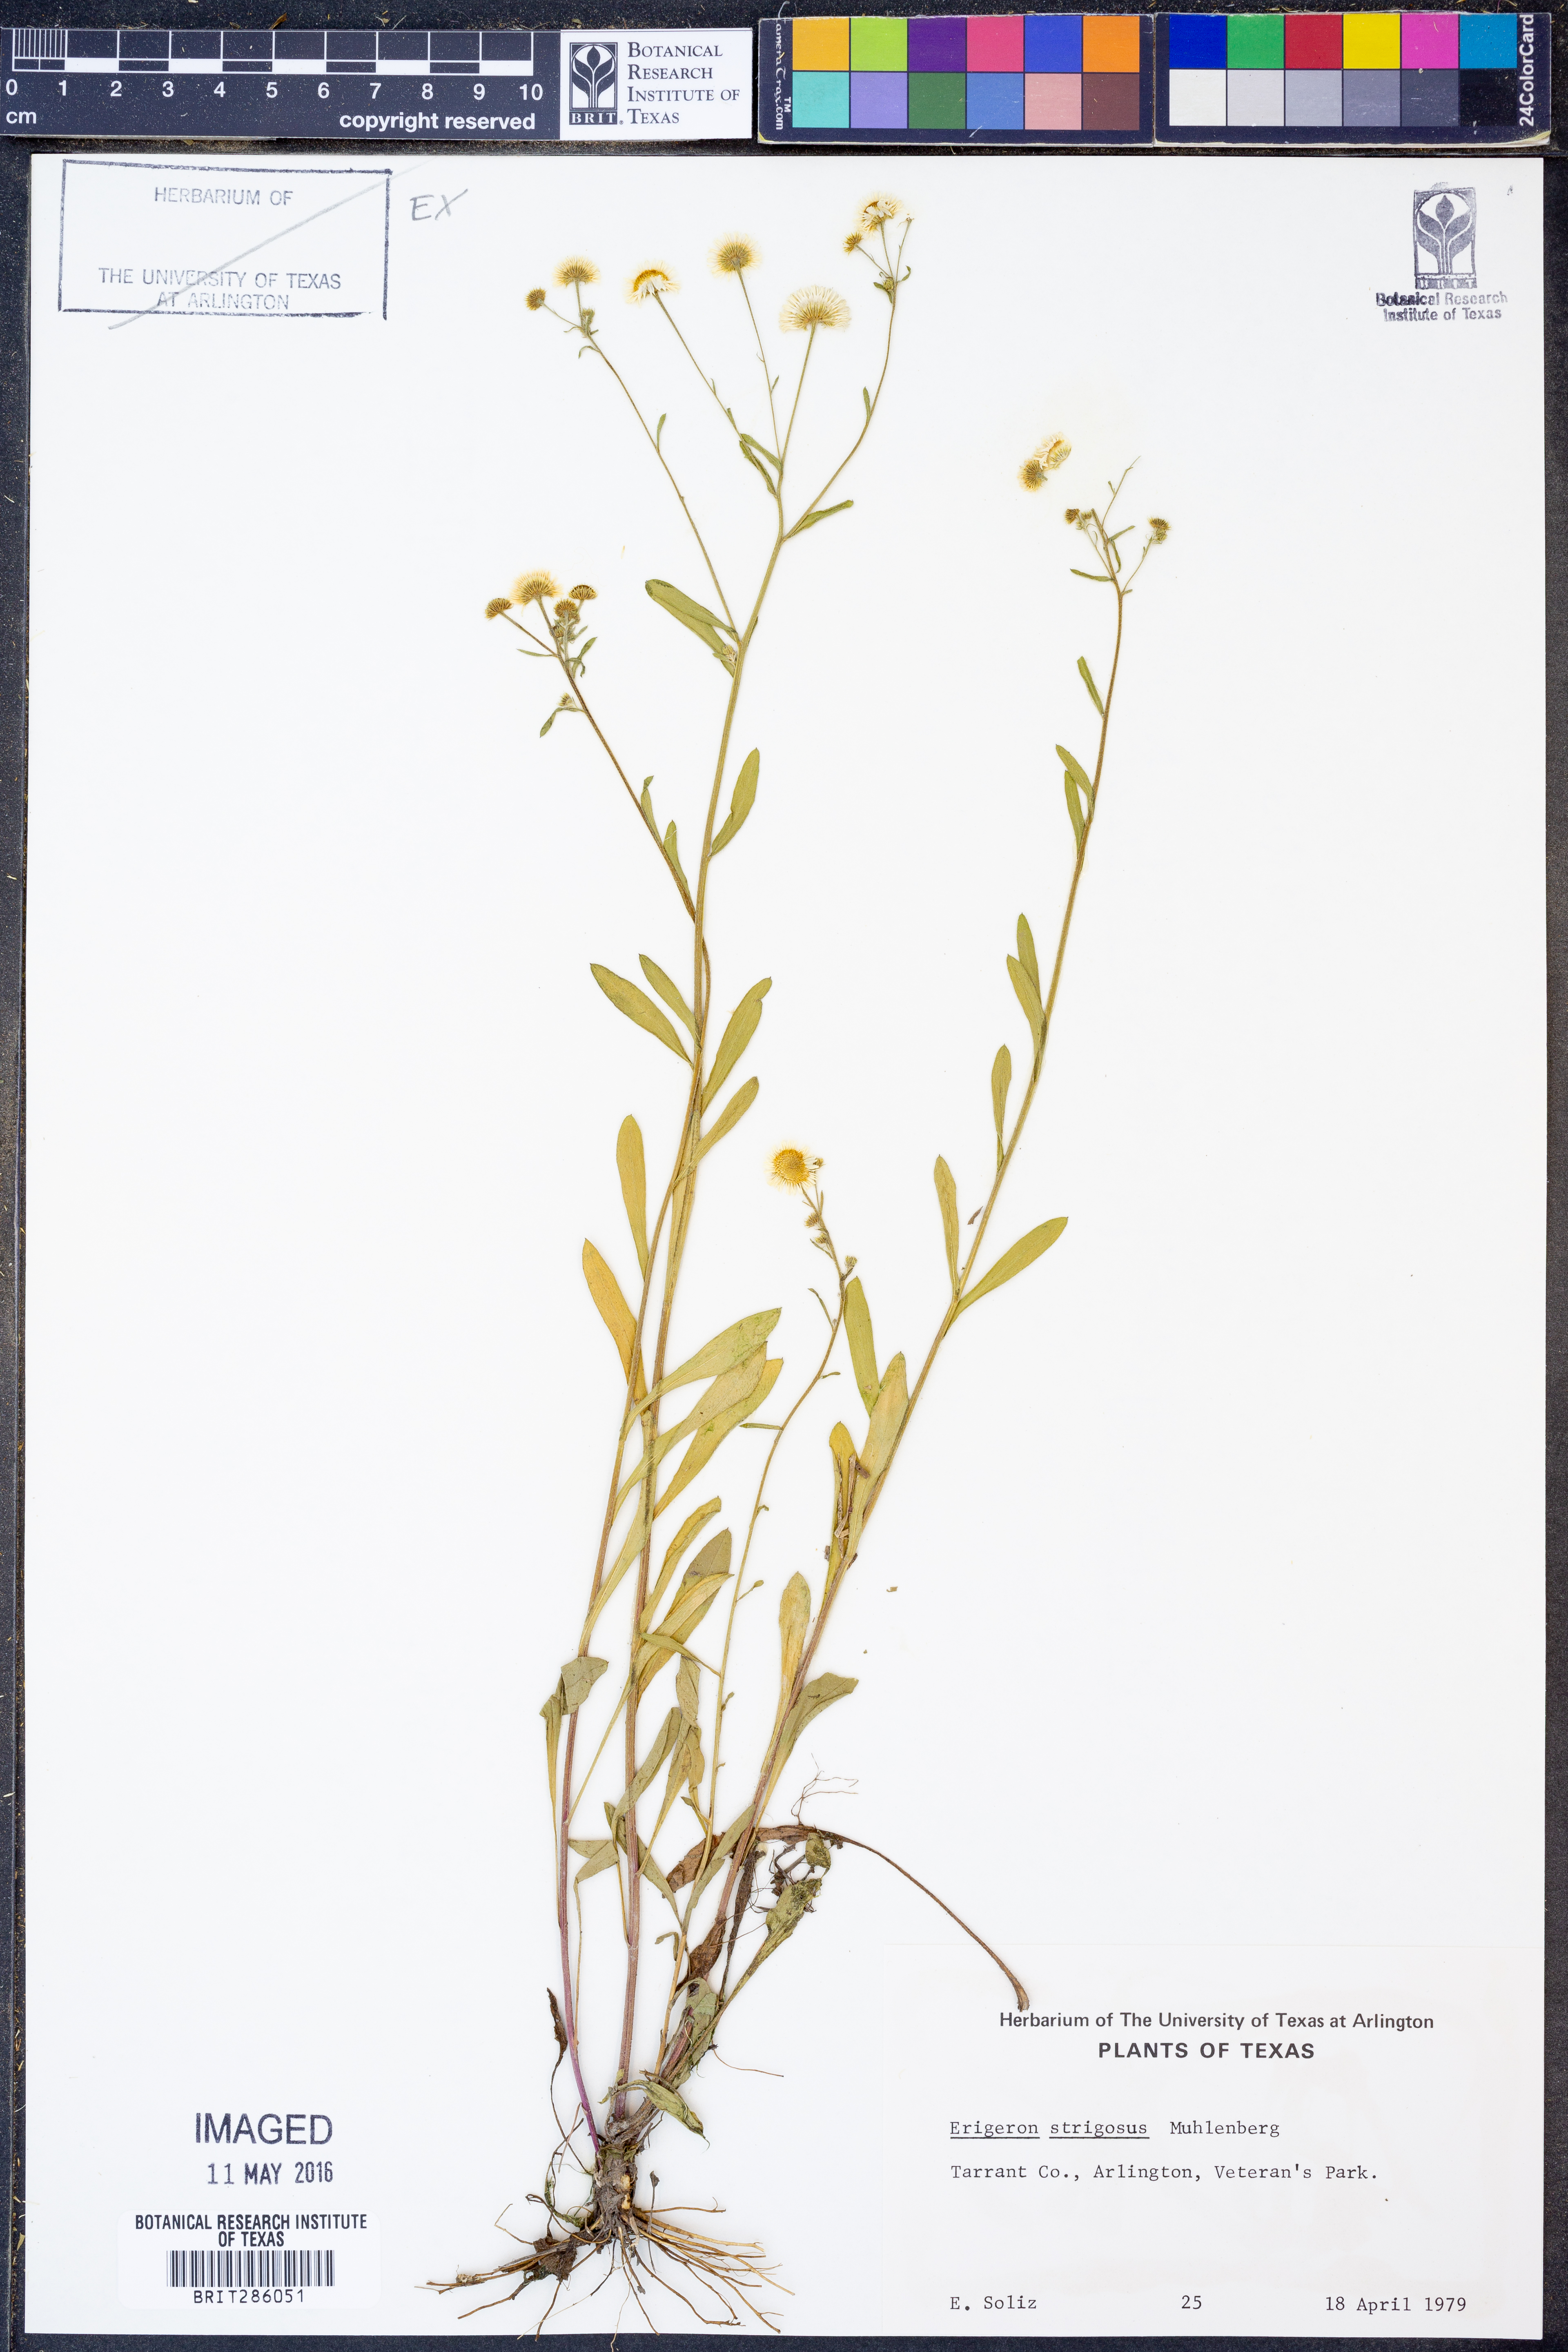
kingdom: Plantae
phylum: Tracheophyta
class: Magnoliopsida
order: Asterales
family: Asteraceae
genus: Erigeron
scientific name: Erigeron strigosus
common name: Common eastern fleabane
